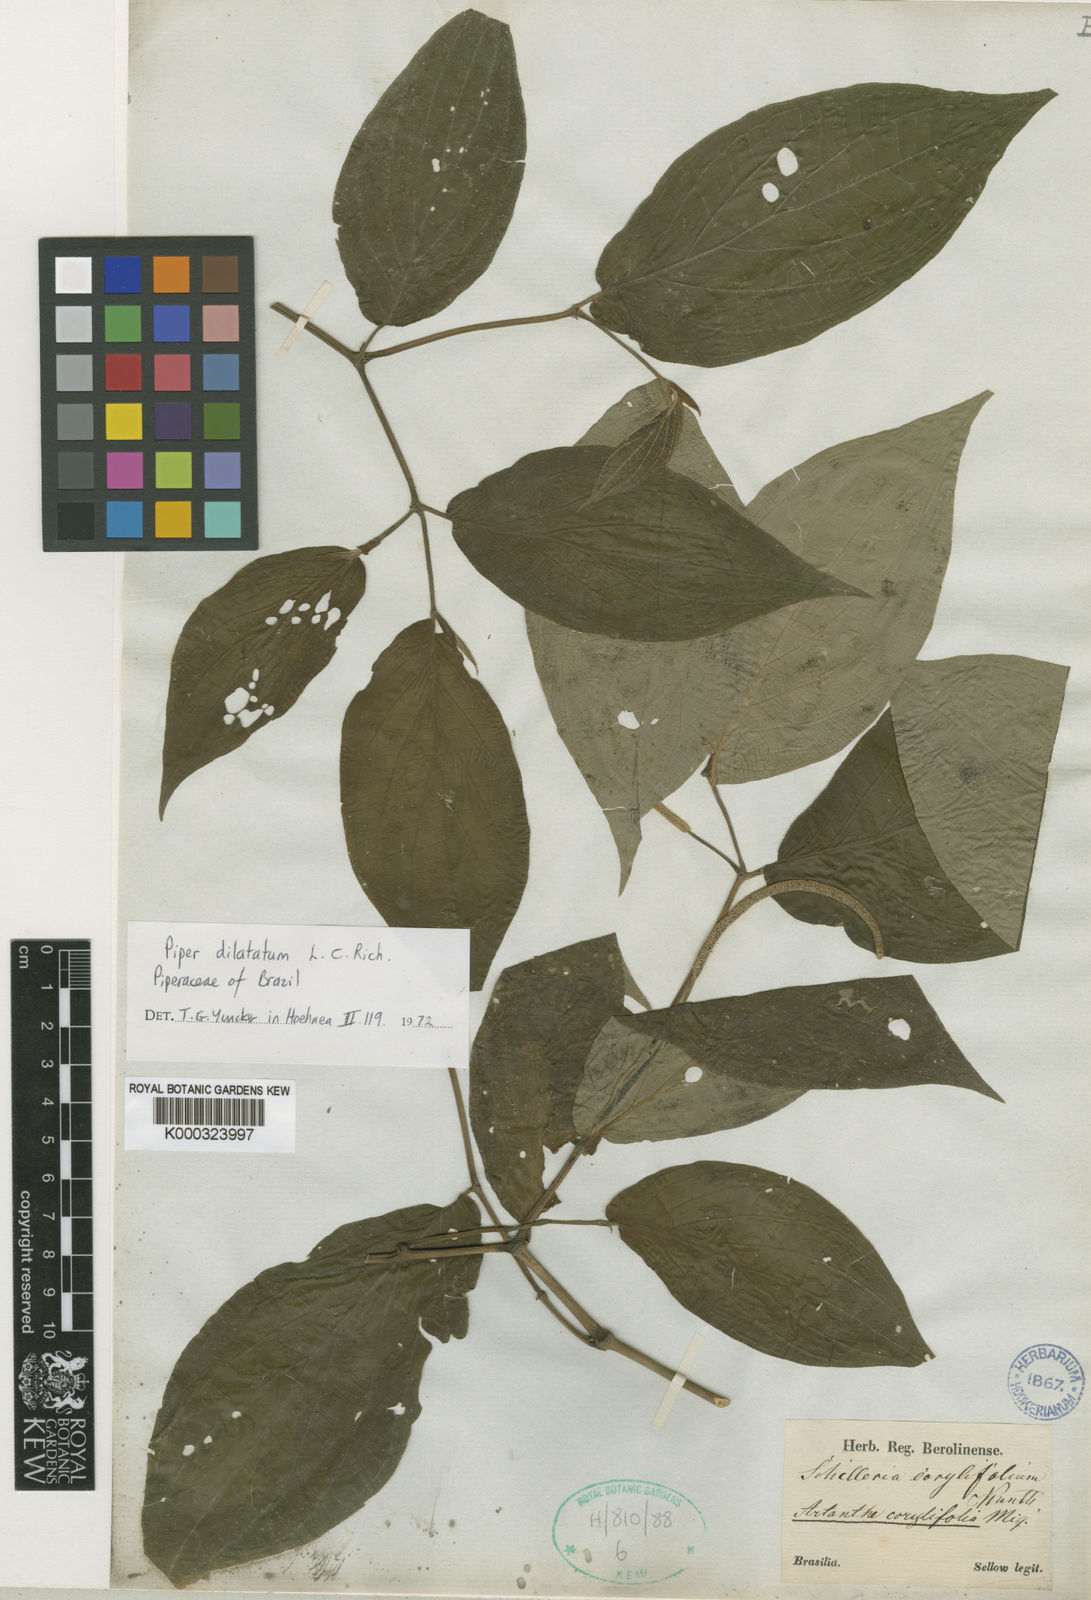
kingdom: Plantae
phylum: Tracheophyta
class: Magnoliopsida
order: Piperales
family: Piperaceae
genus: Piper
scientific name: Piper dilatatum
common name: Higuillo
